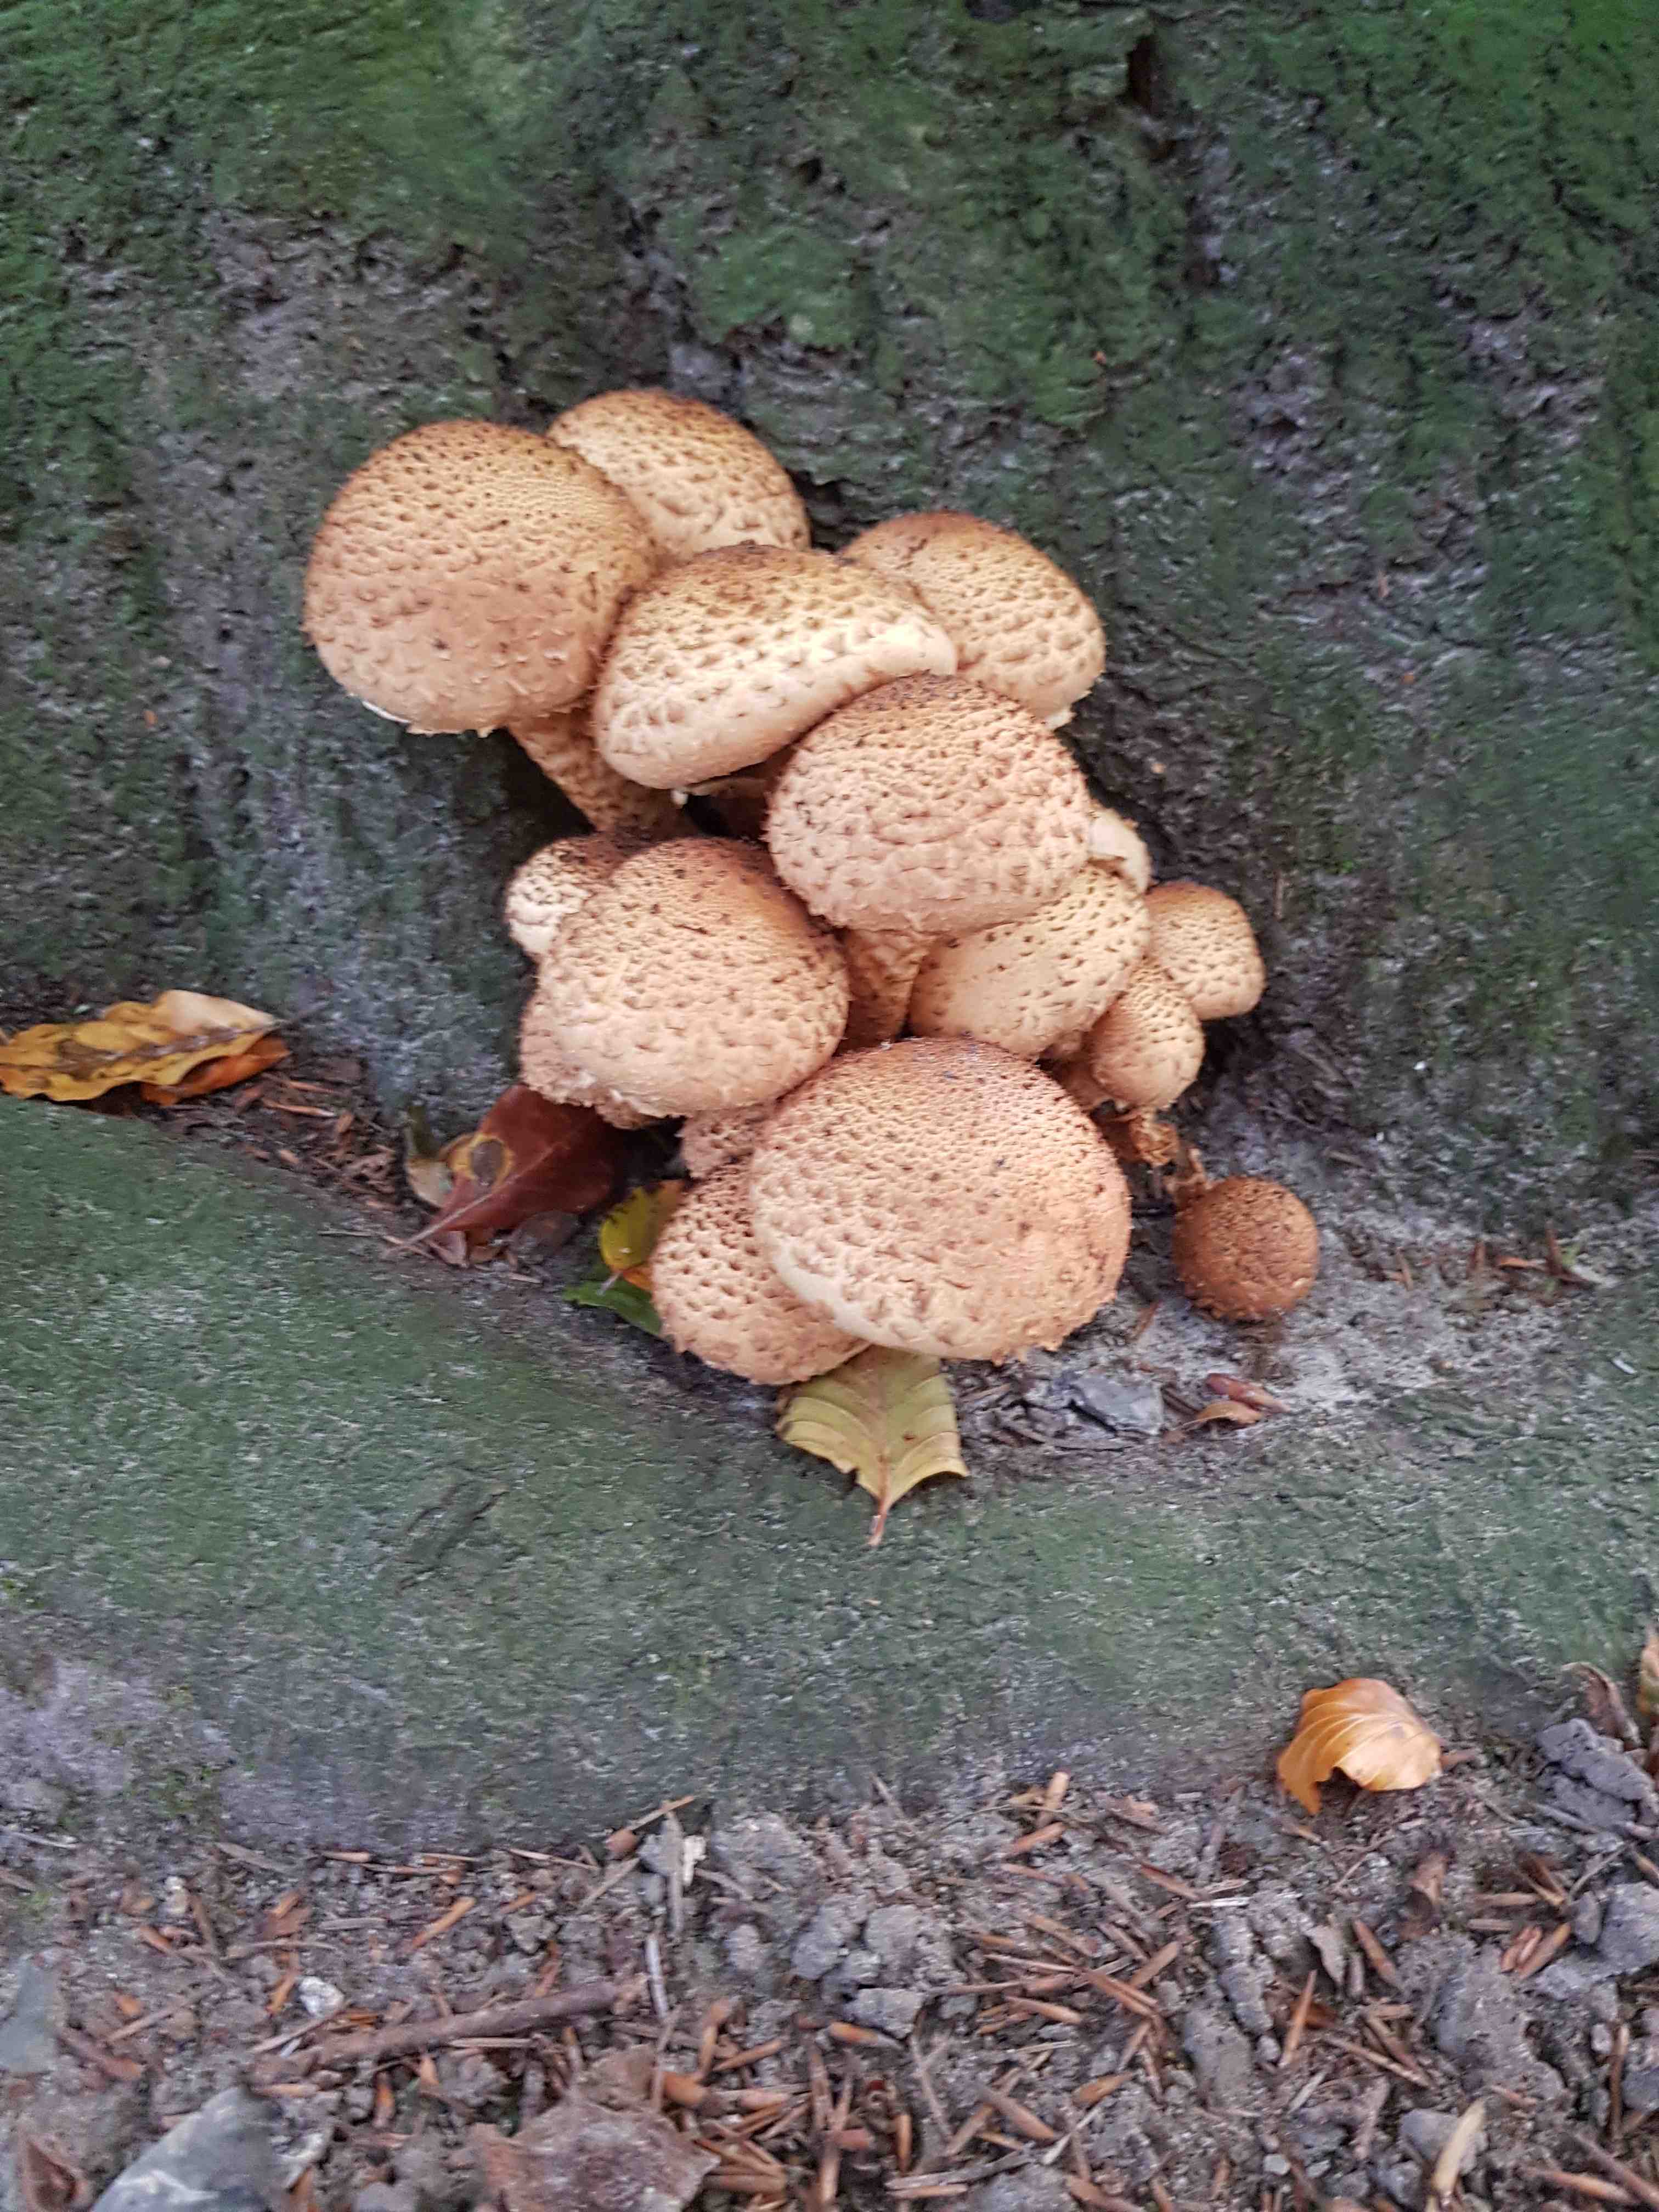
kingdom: Fungi
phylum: Basidiomycota
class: Agaricomycetes
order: Agaricales
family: Strophariaceae
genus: Pholiota
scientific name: Pholiota squarrosa
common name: krumskællet skælhat
